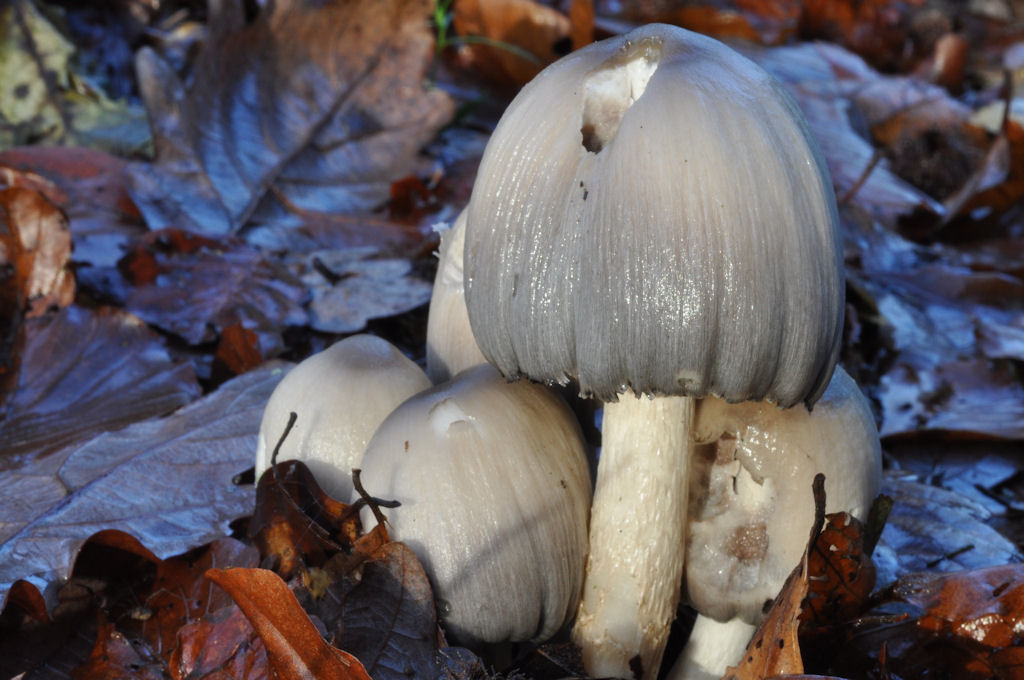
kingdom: Fungi
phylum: Basidiomycota
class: Agaricomycetes
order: Agaricales
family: Psathyrellaceae
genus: Coprinopsis
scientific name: Coprinopsis acuminata
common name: kegle-blækhat
